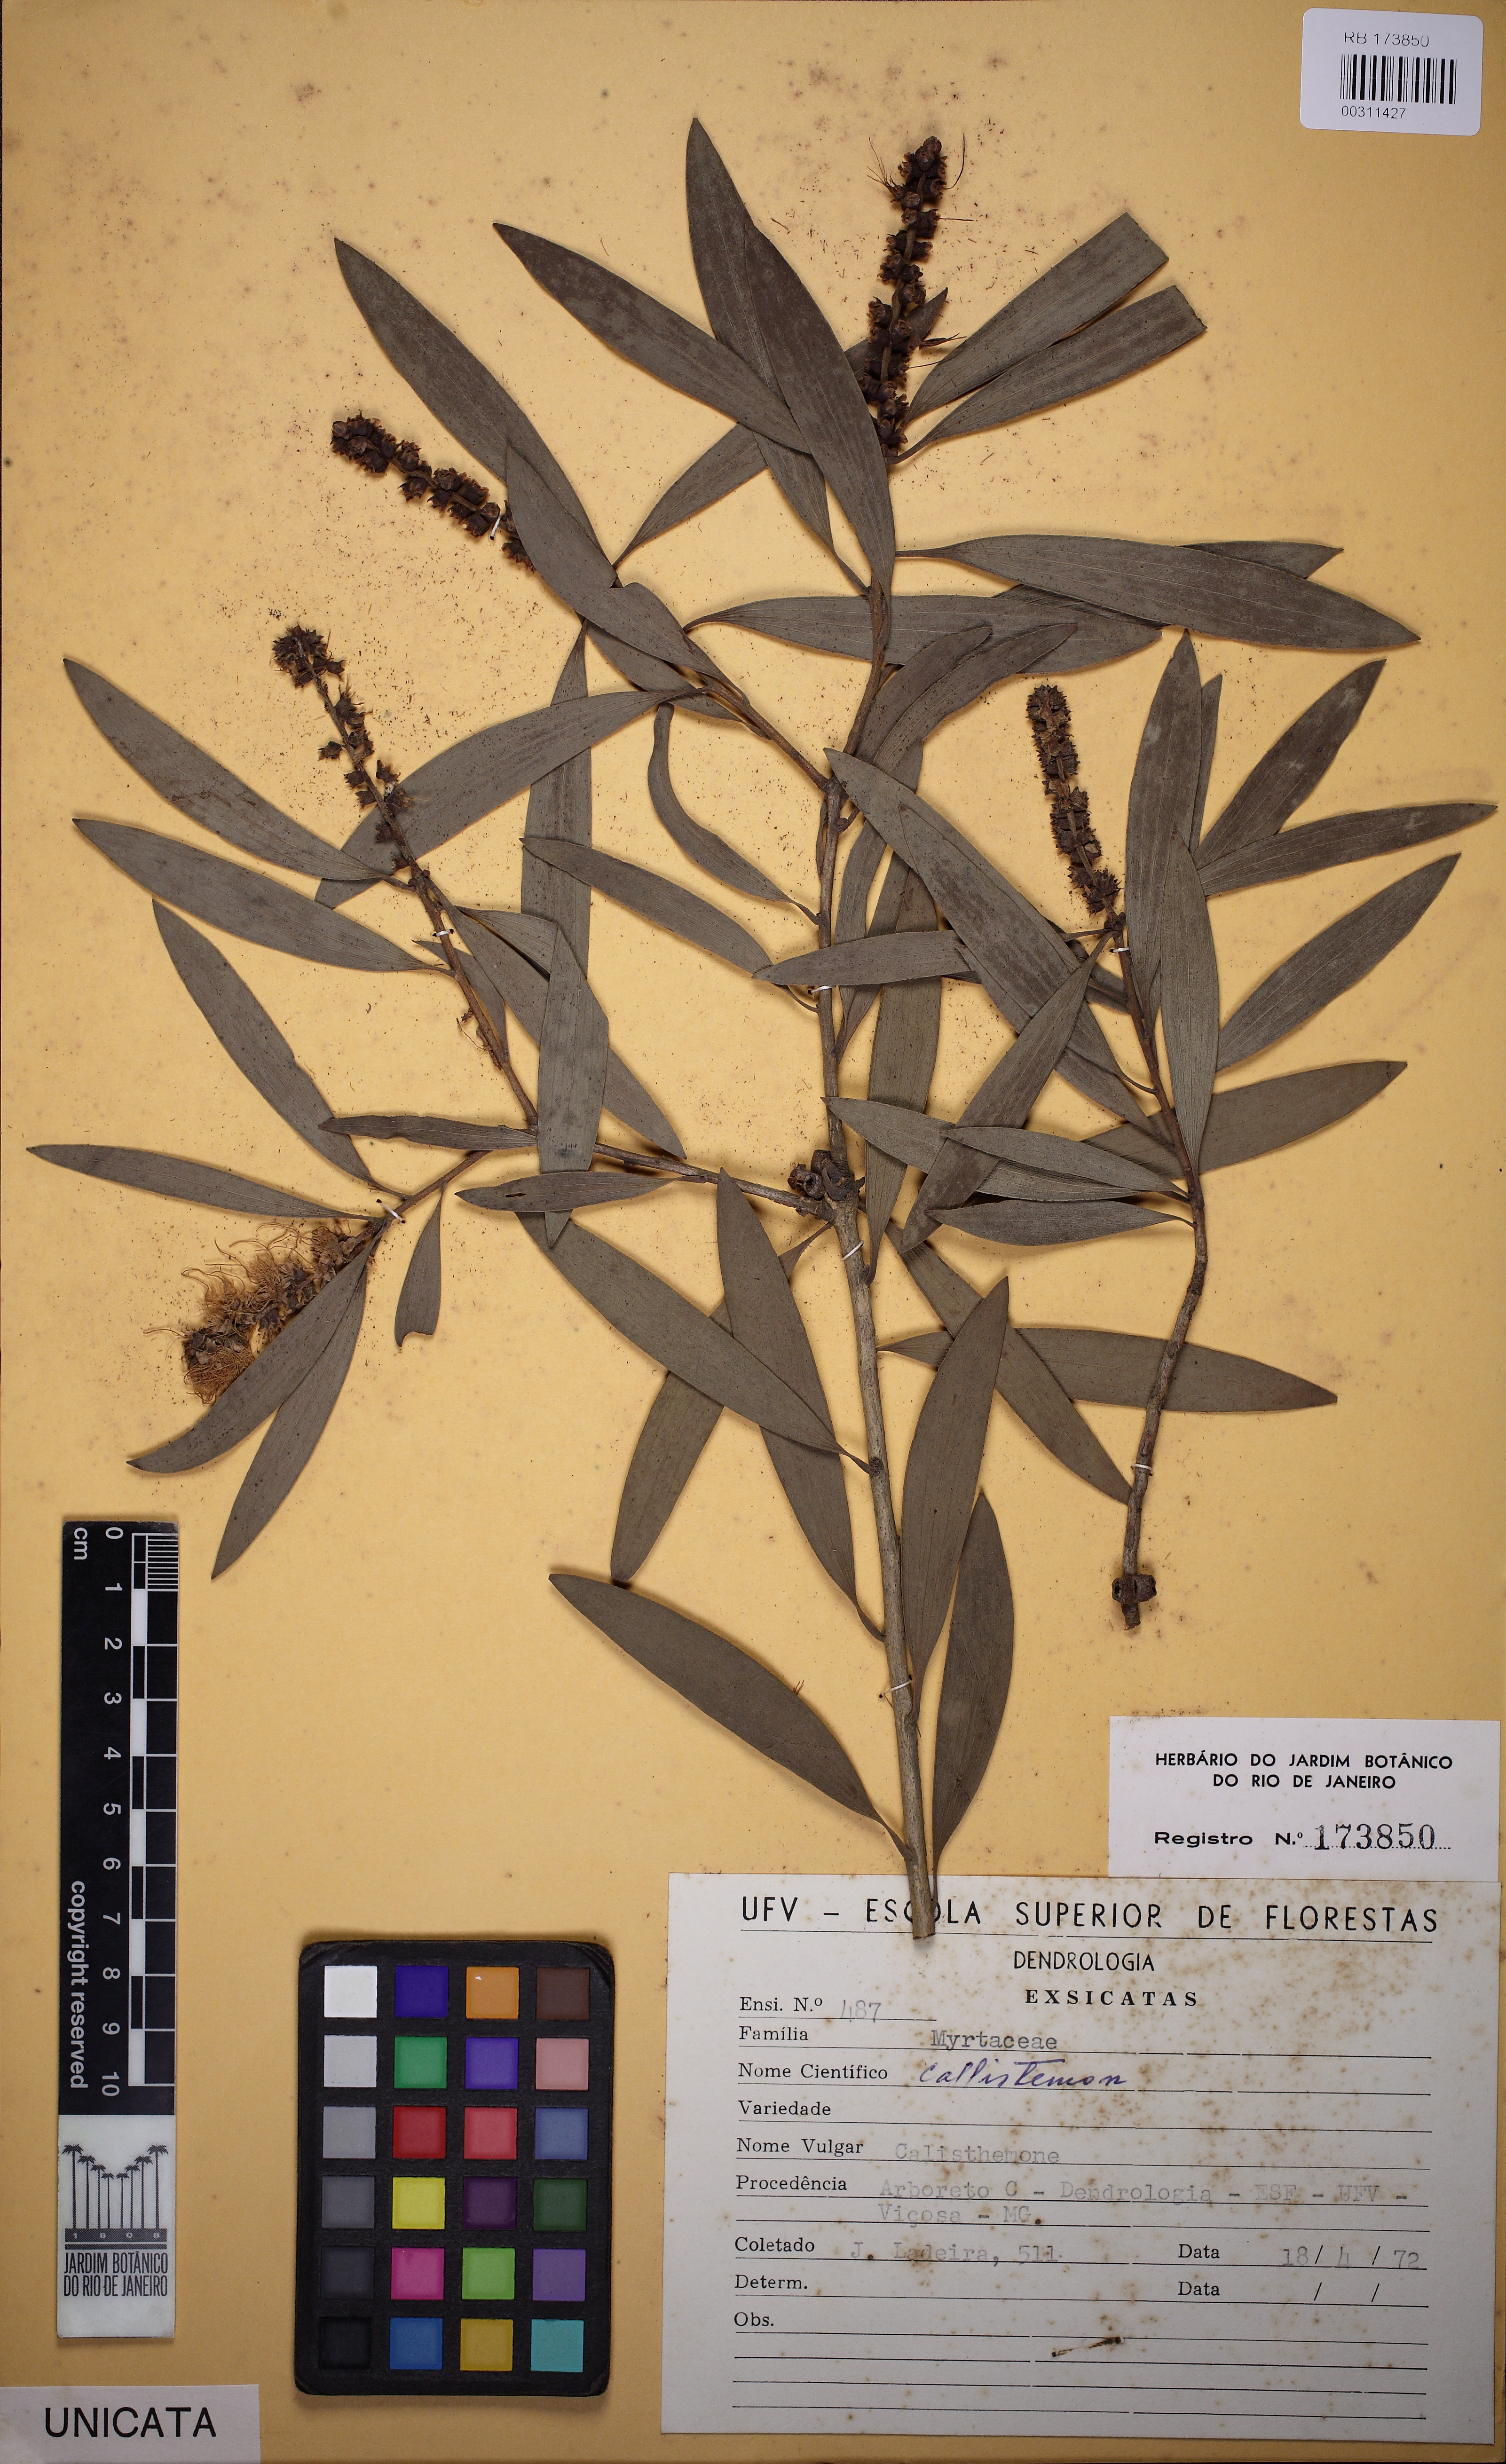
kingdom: Plantae
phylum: Tracheophyta
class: Magnoliopsida
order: Myrtales
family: Myrtaceae
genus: Callistemon
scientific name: Callistemon
